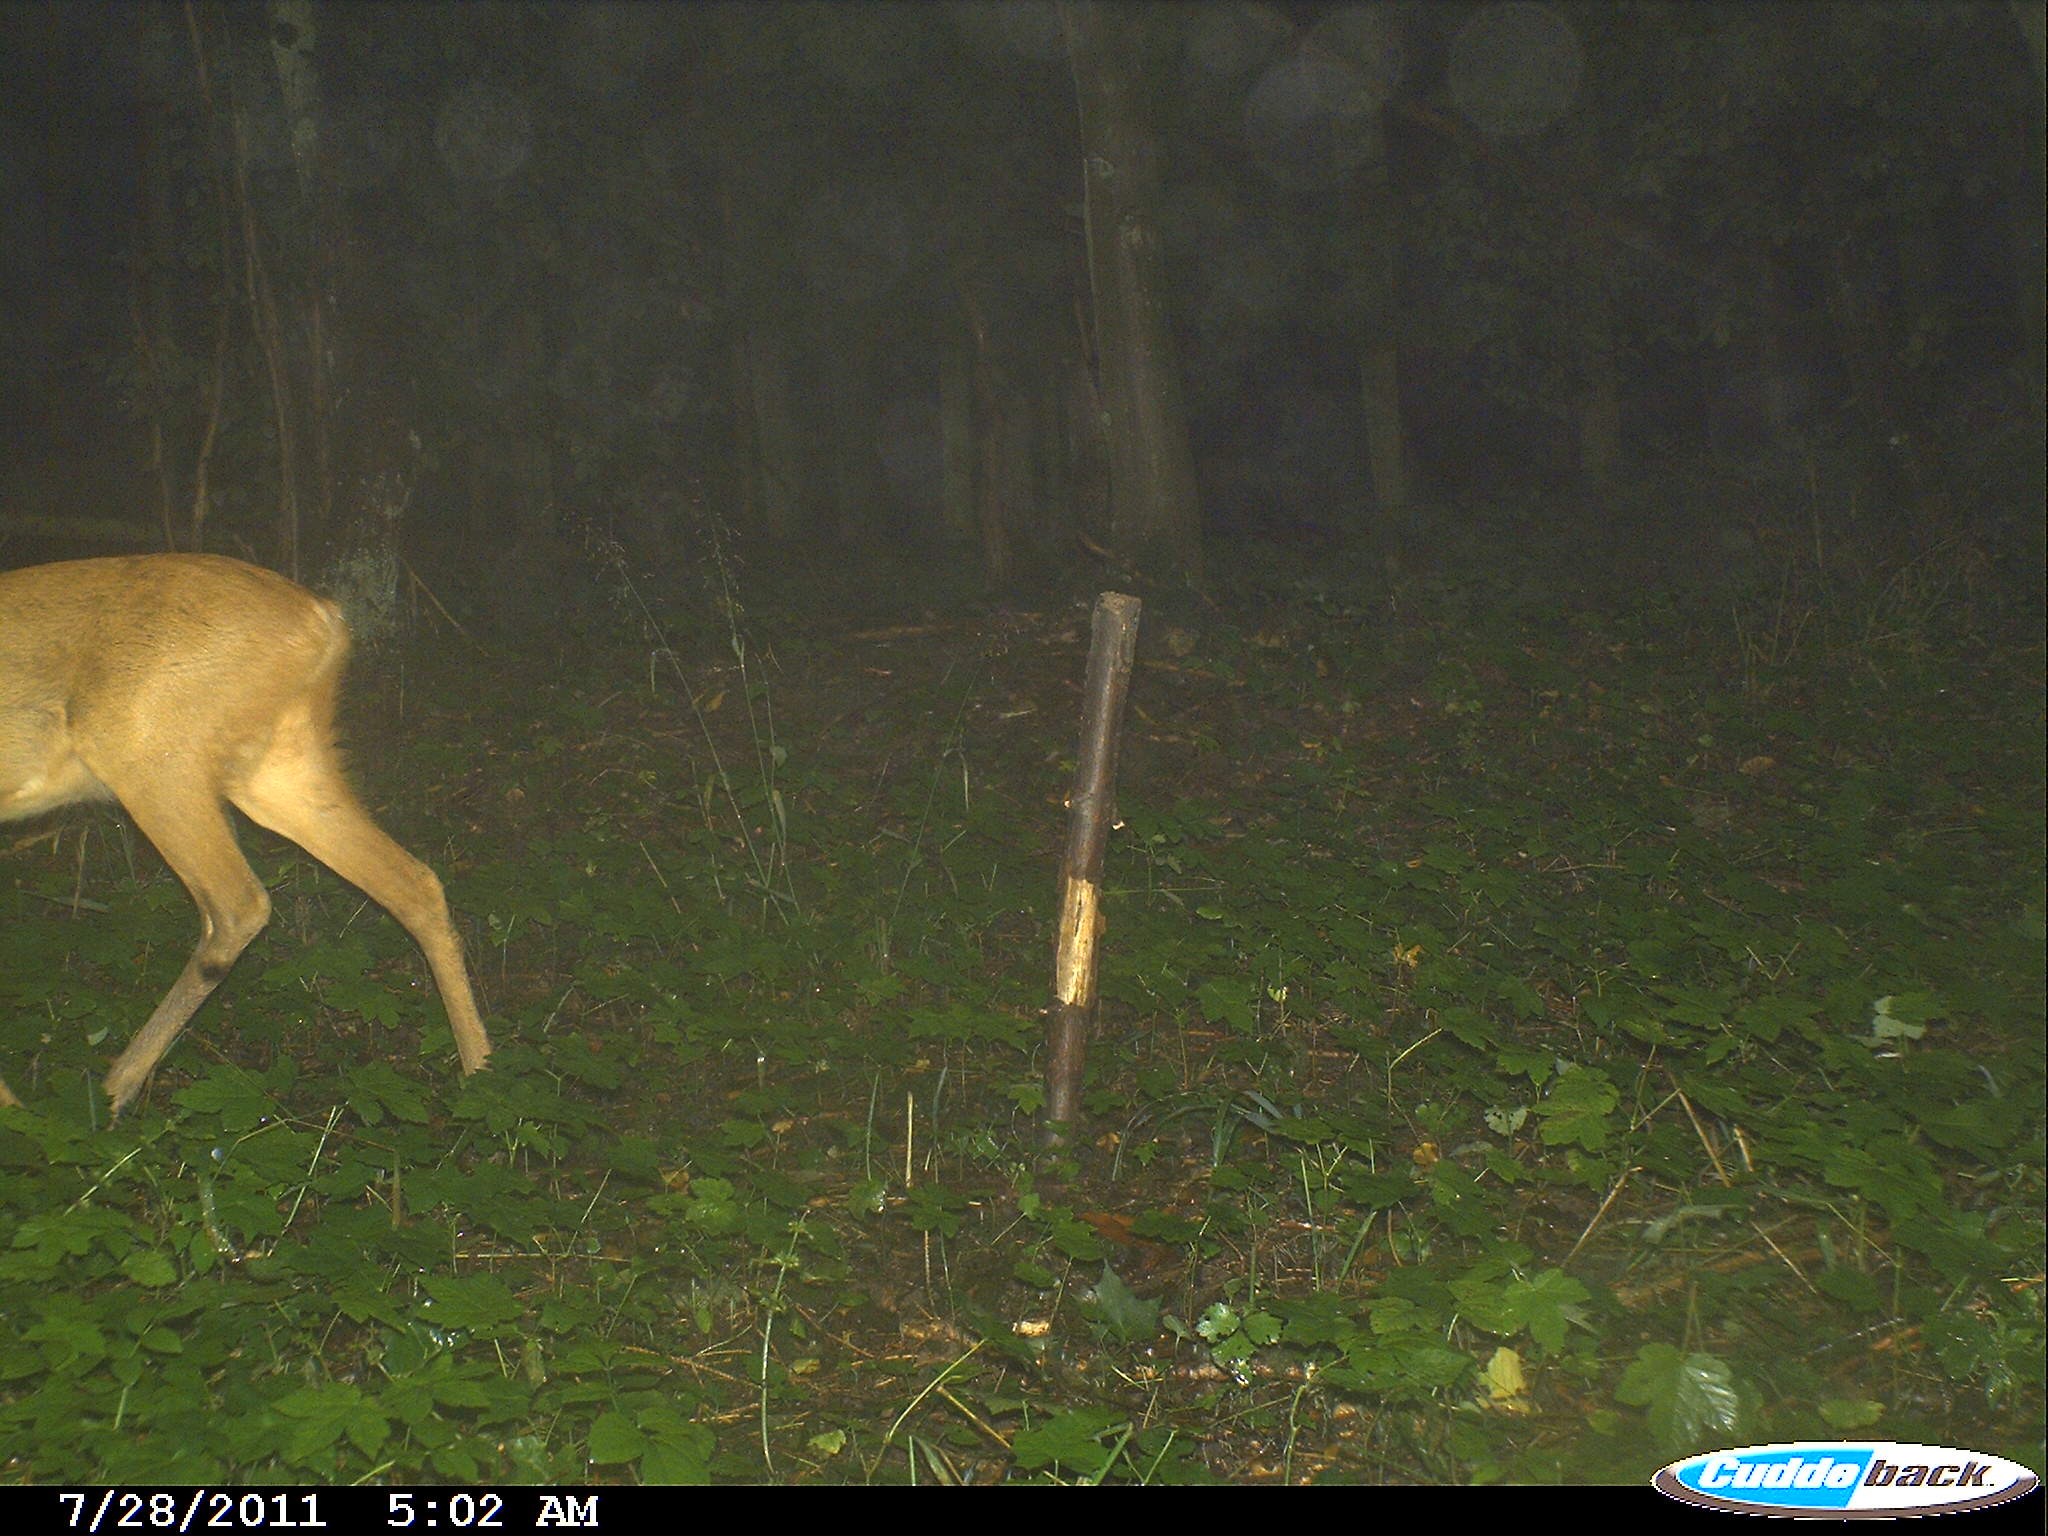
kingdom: Animalia
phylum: Chordata
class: Mammalia
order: Artiodactyla
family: Cervidae
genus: Capreolus
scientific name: Capreolus capreolus
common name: Western roe deer
